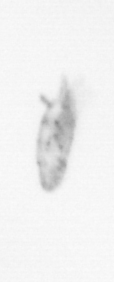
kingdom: Animalia
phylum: Arthropoda
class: Copepoda
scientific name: Copepoda
